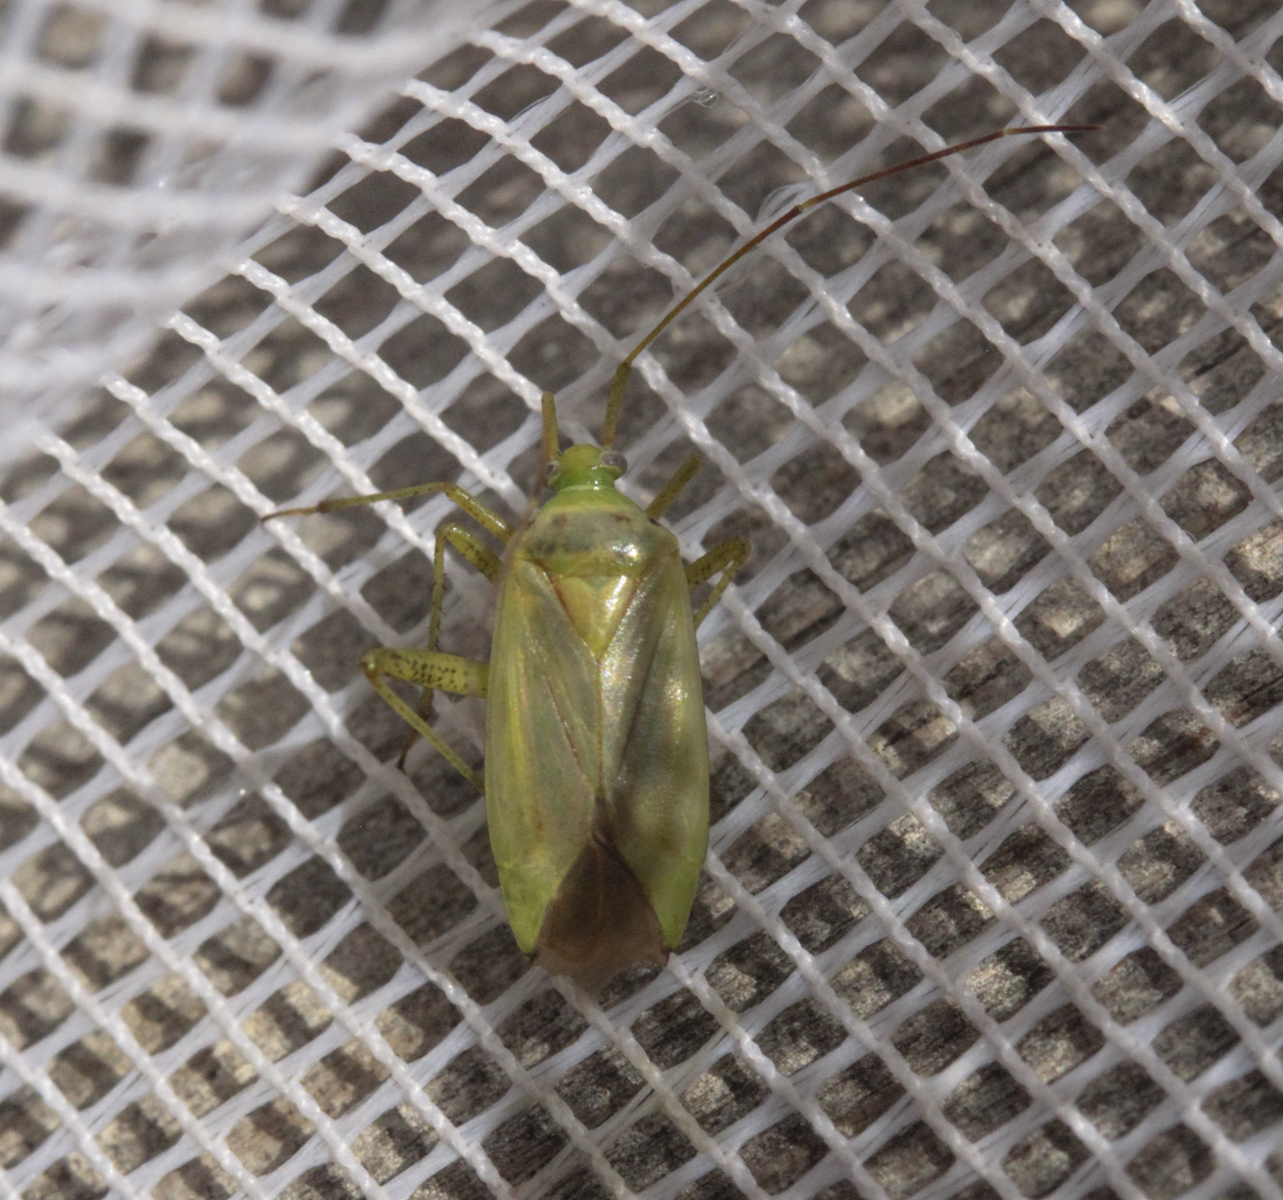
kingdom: Animalia
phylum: Arthropoda
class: Insecta
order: Hemiptera
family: Miridae
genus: Neolygus
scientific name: Neolygus contaminatus
